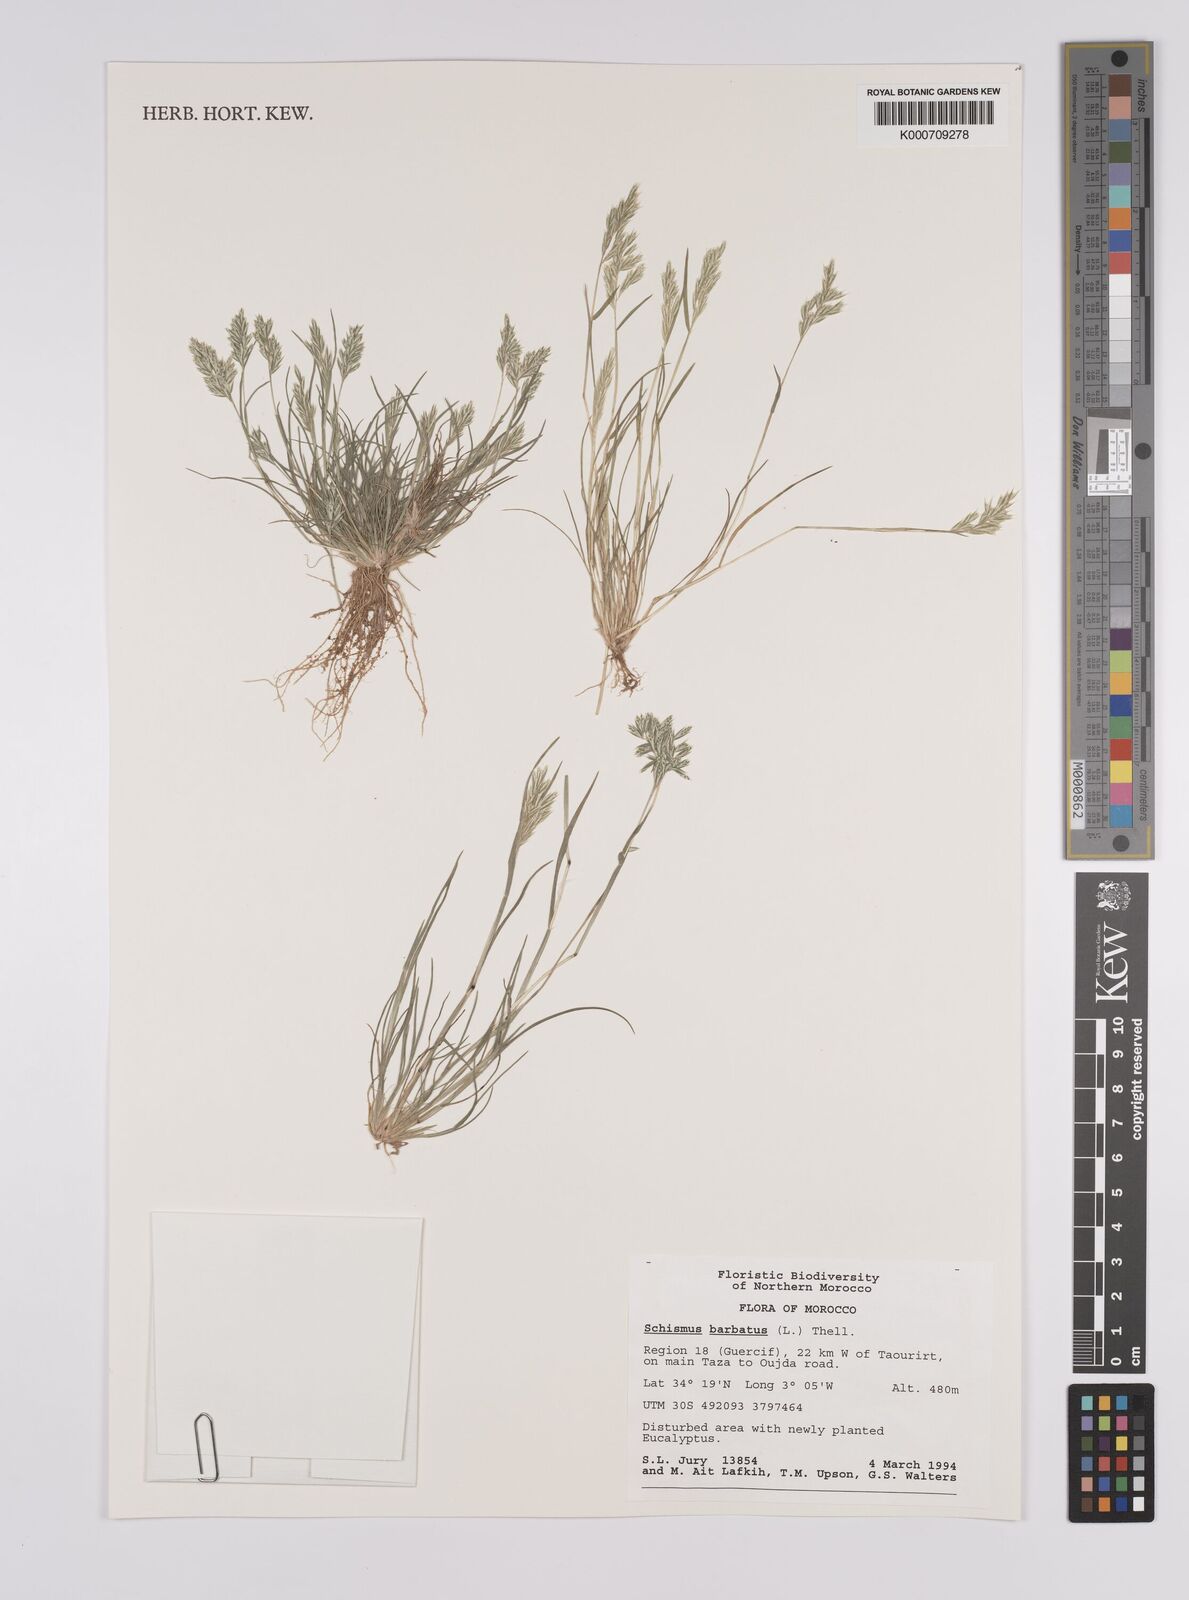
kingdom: Plantae
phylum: Tracheophyta
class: Liliopsida
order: Poales
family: Poaceae
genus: Schismus
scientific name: Schismus barbatus
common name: Kelch-grass
